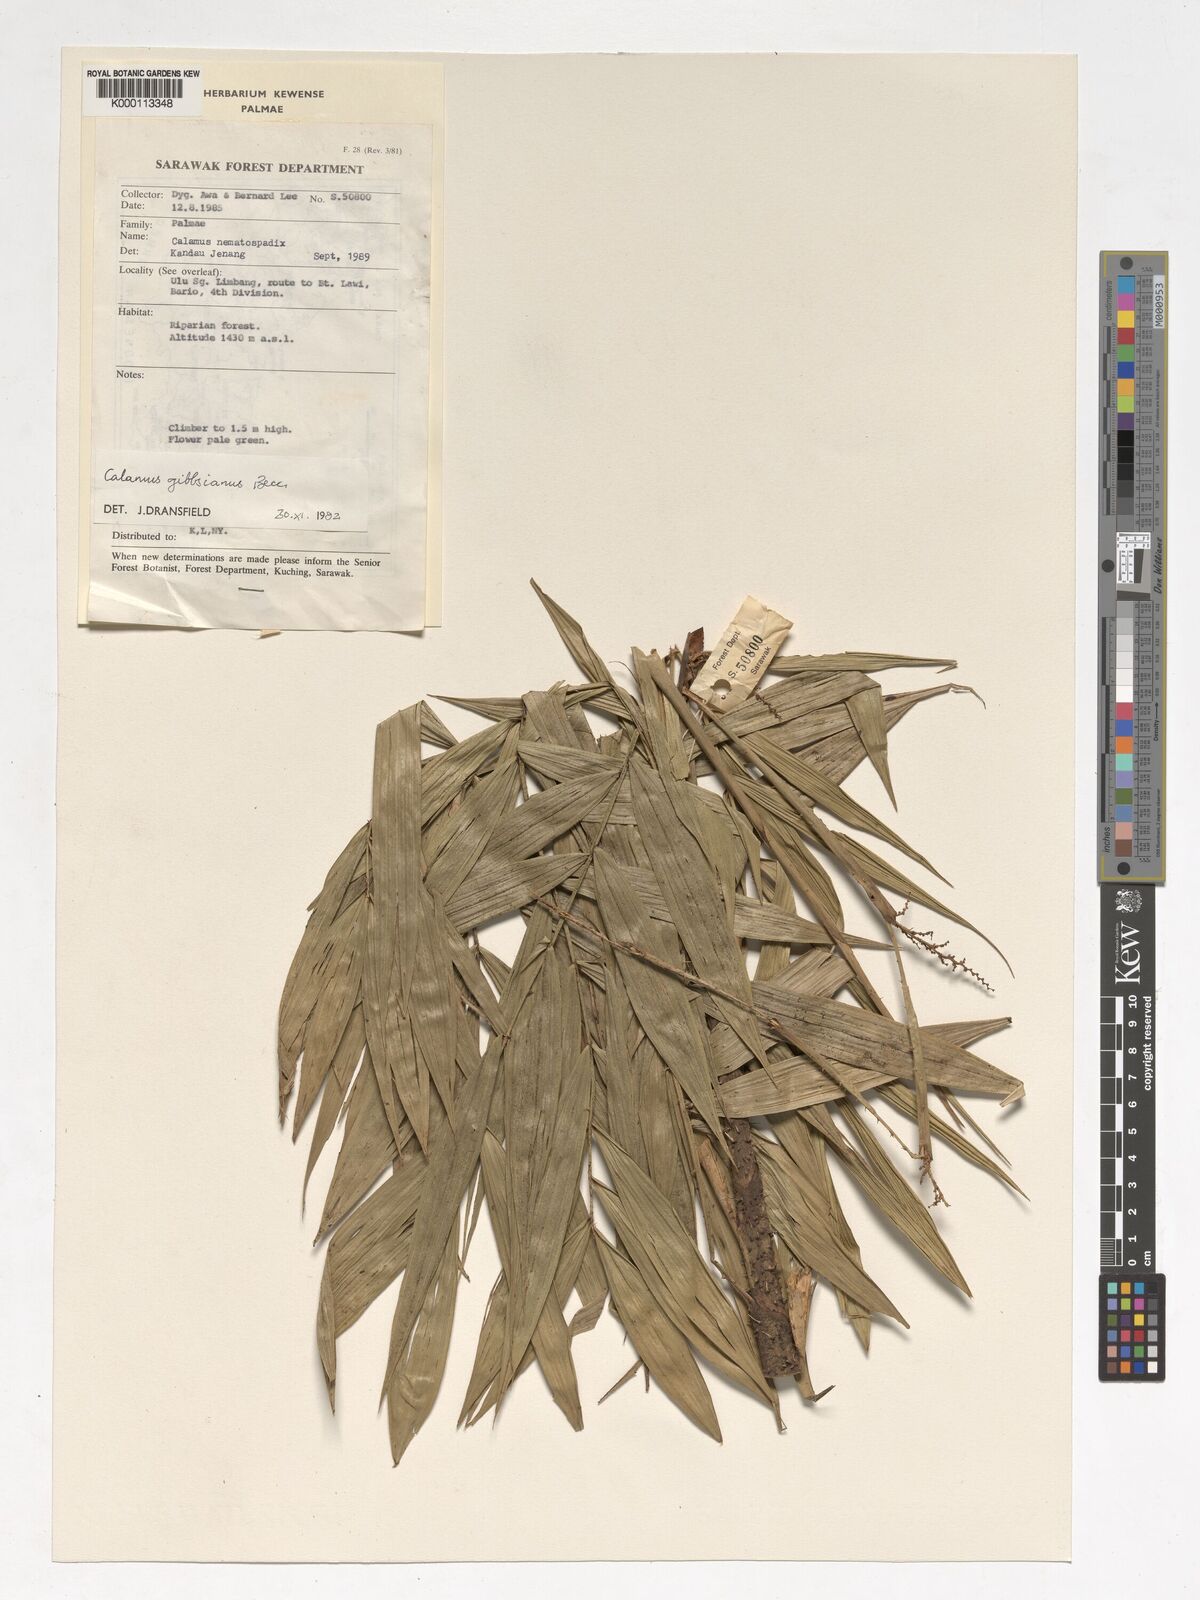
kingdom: Plantae
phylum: Tracheophyta
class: Liliopsida
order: Arecales
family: Arecaceae
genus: Calamus
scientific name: Calamus gibbsianus
